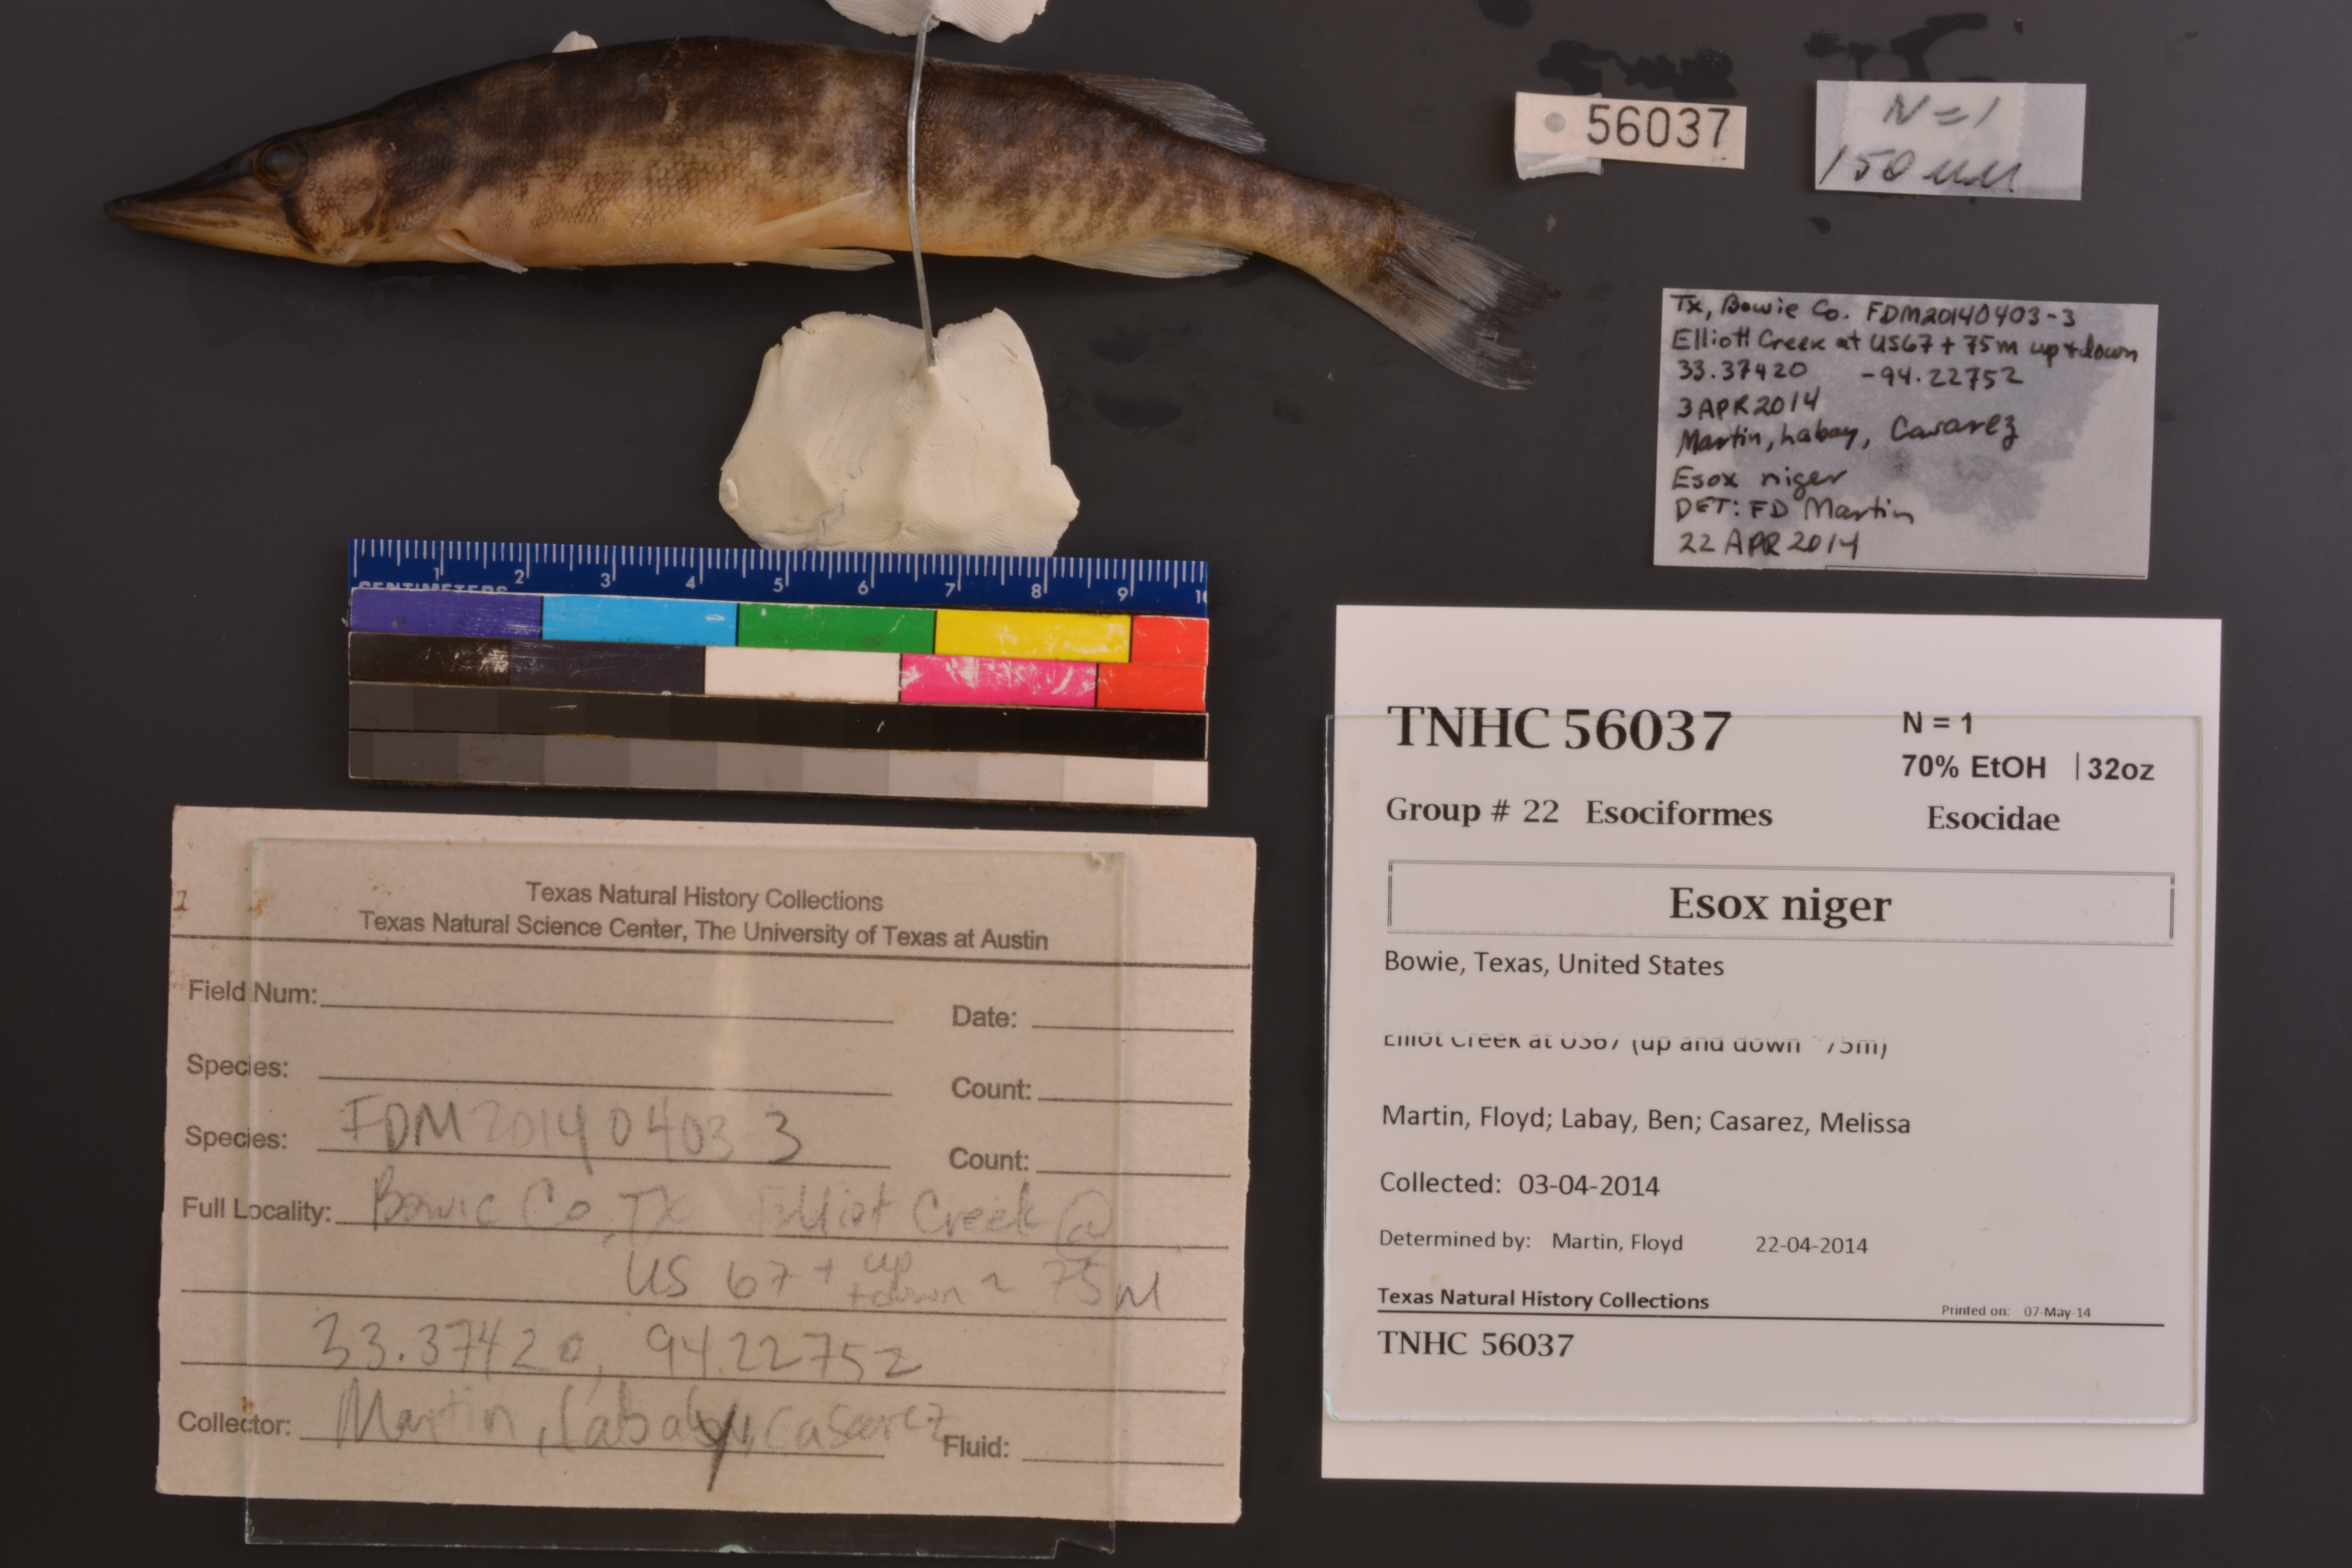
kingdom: Animalia
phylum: Chordata
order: Esociformes
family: Esocidae
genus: Esox
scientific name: Esox niger
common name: Chain pickerel
